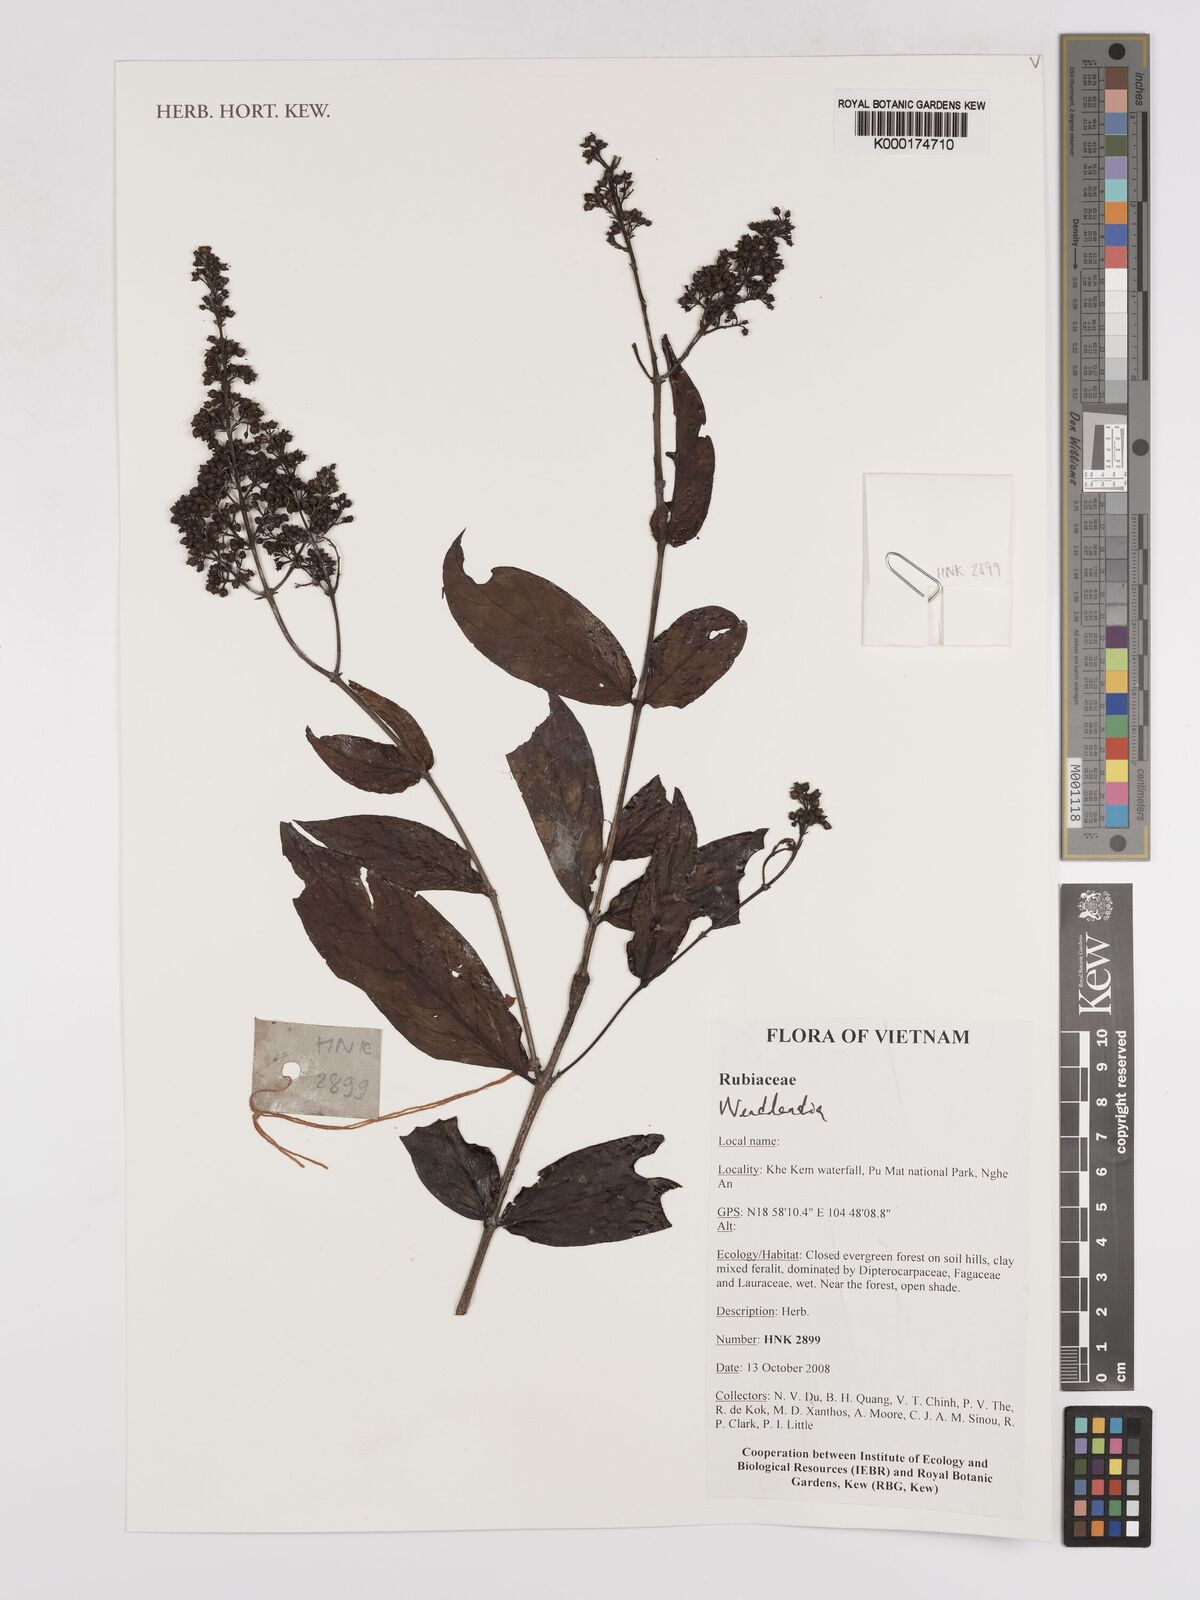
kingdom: Plantae
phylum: Tracheophyta
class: Magnoliopsida
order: Gentianales
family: Rubiaceae
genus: Wendlandia
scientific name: Wendlandia
